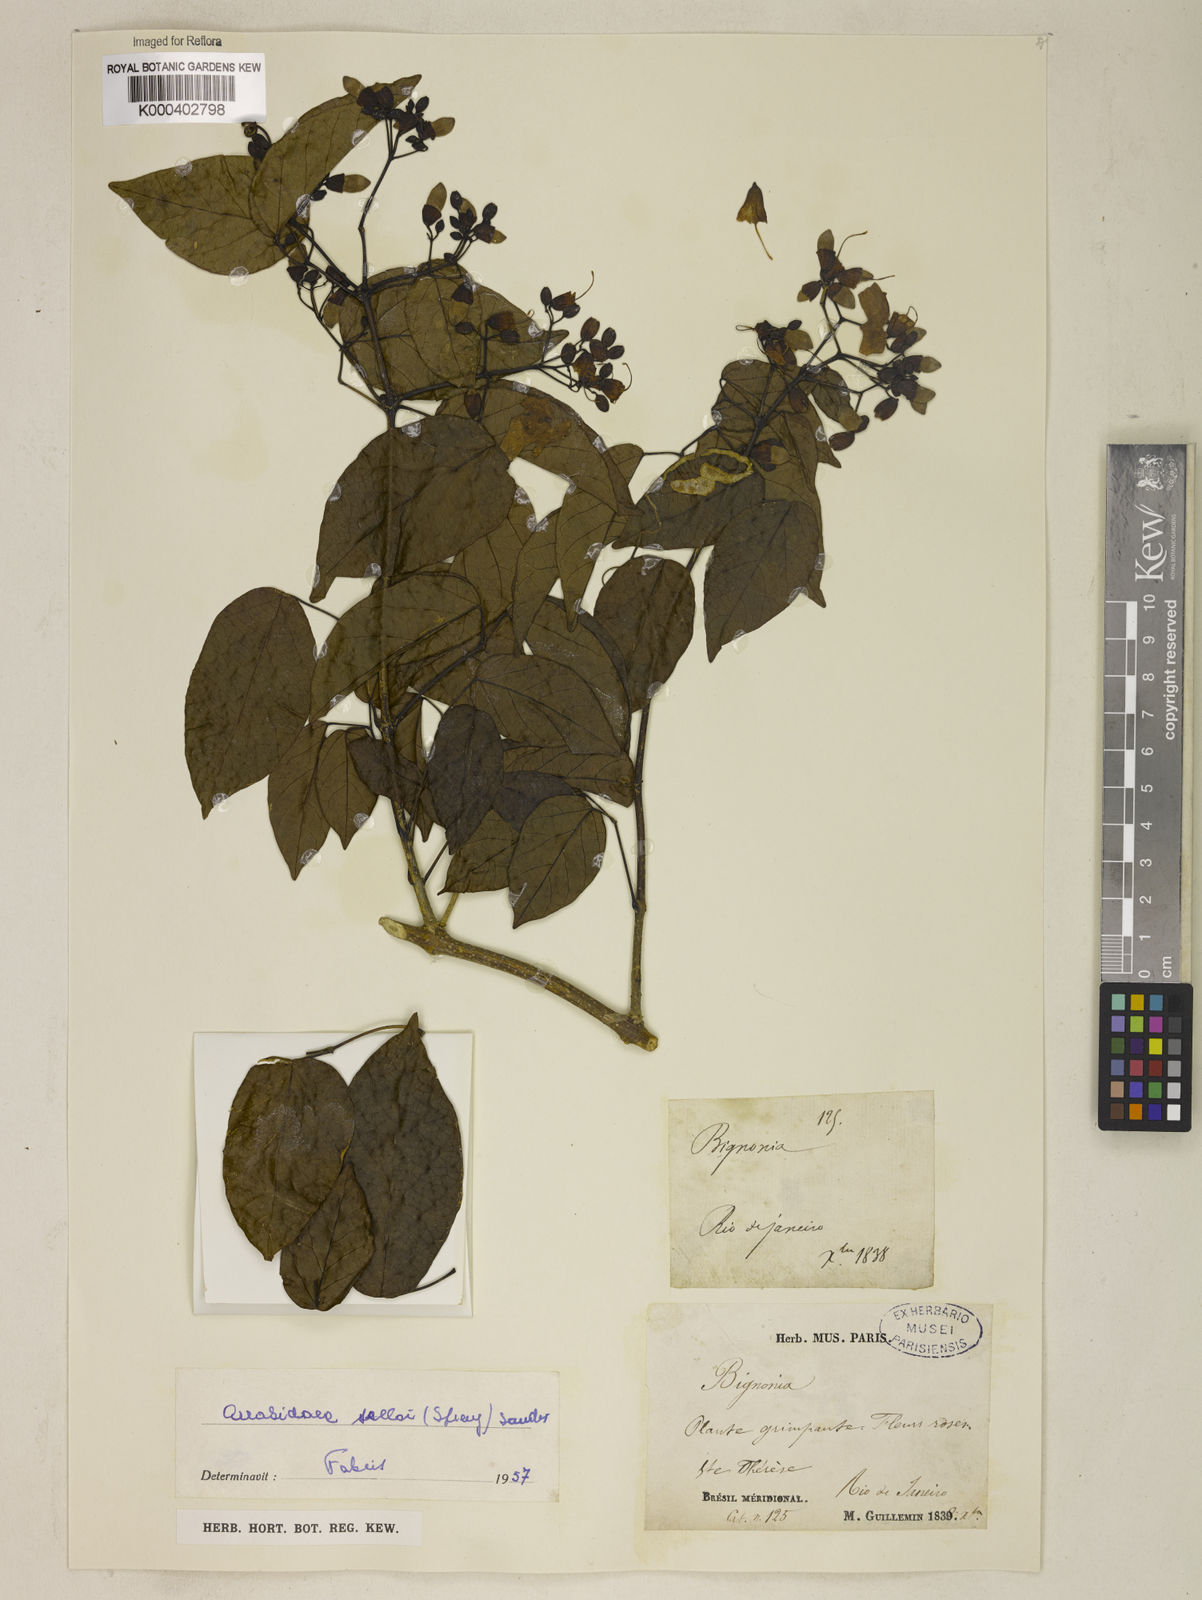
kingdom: Plantae
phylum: Tracheophyta
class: Magnoliopsida
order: Lamiales
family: Bignoniaceae
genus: Tanaecium
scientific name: Tanaecium selloi
